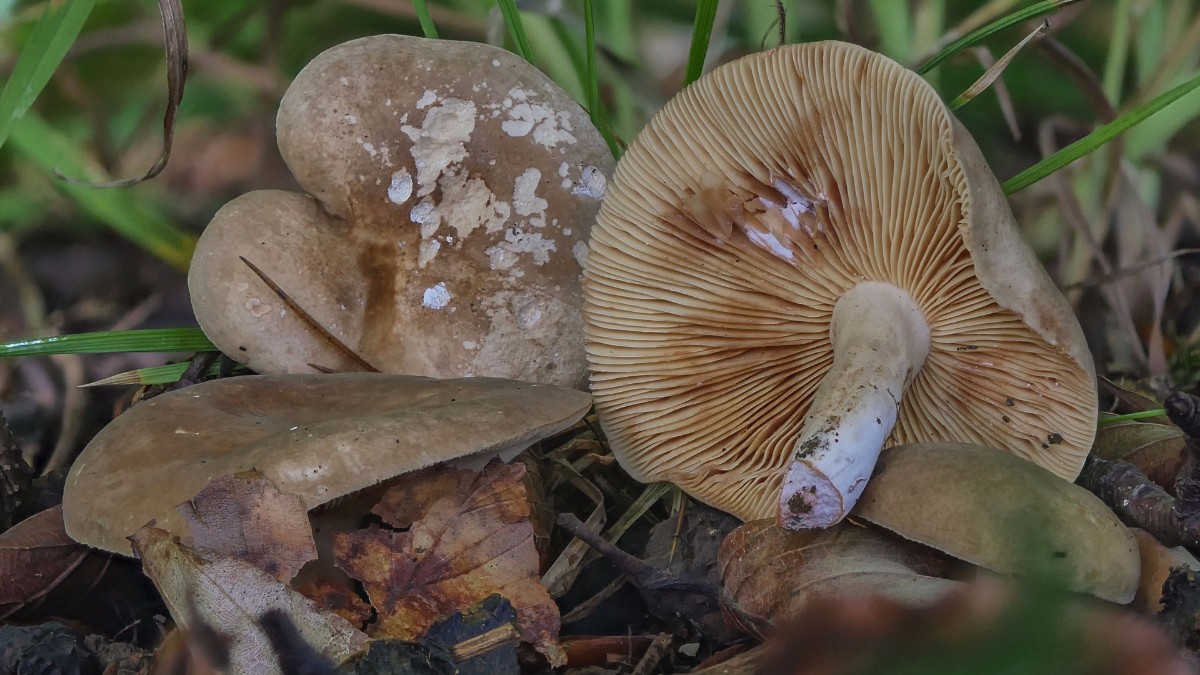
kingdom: Fungi
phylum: Basidiomycota
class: Agaricomycetes
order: Russulales
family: Russulaceae
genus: Lactarius
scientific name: Lactarius pterosporus
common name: vingesporet mælkehat
